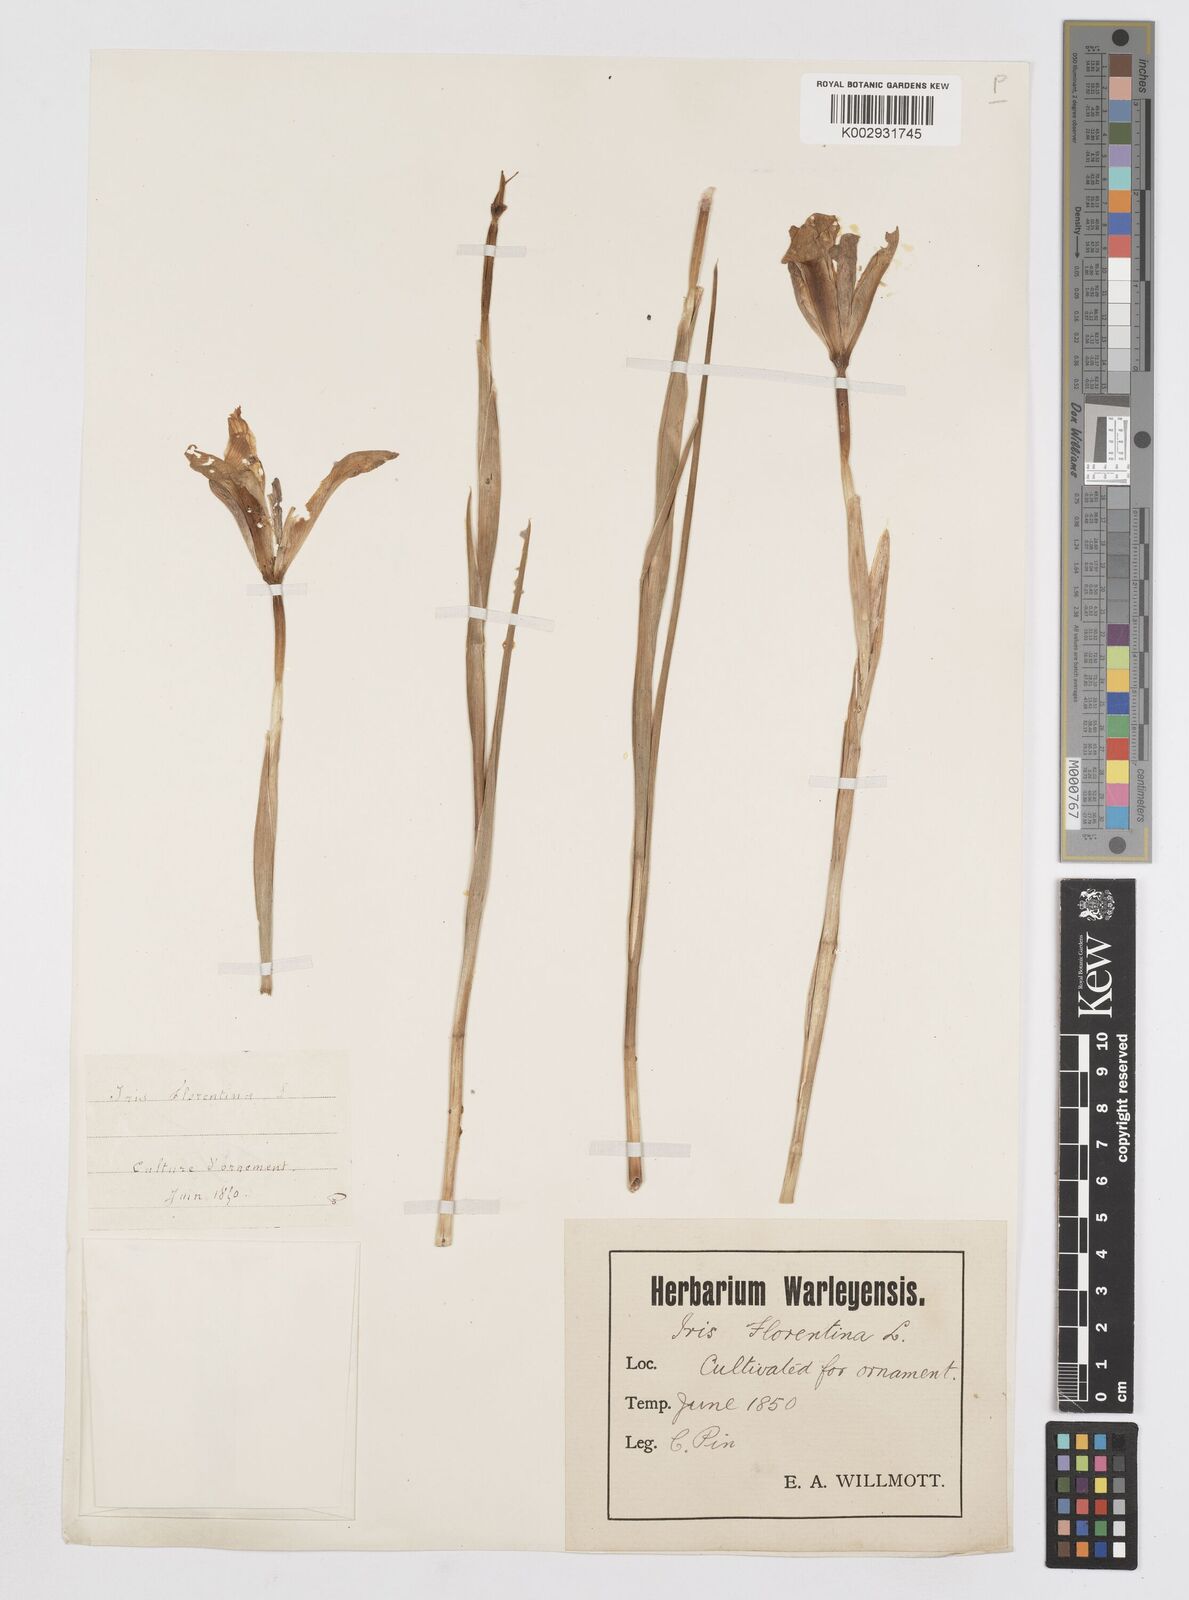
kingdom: Plantae
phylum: Tracheophyta
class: Liliopsida
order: Asparagales
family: Iridaceae
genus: Iris
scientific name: Iris florentina
